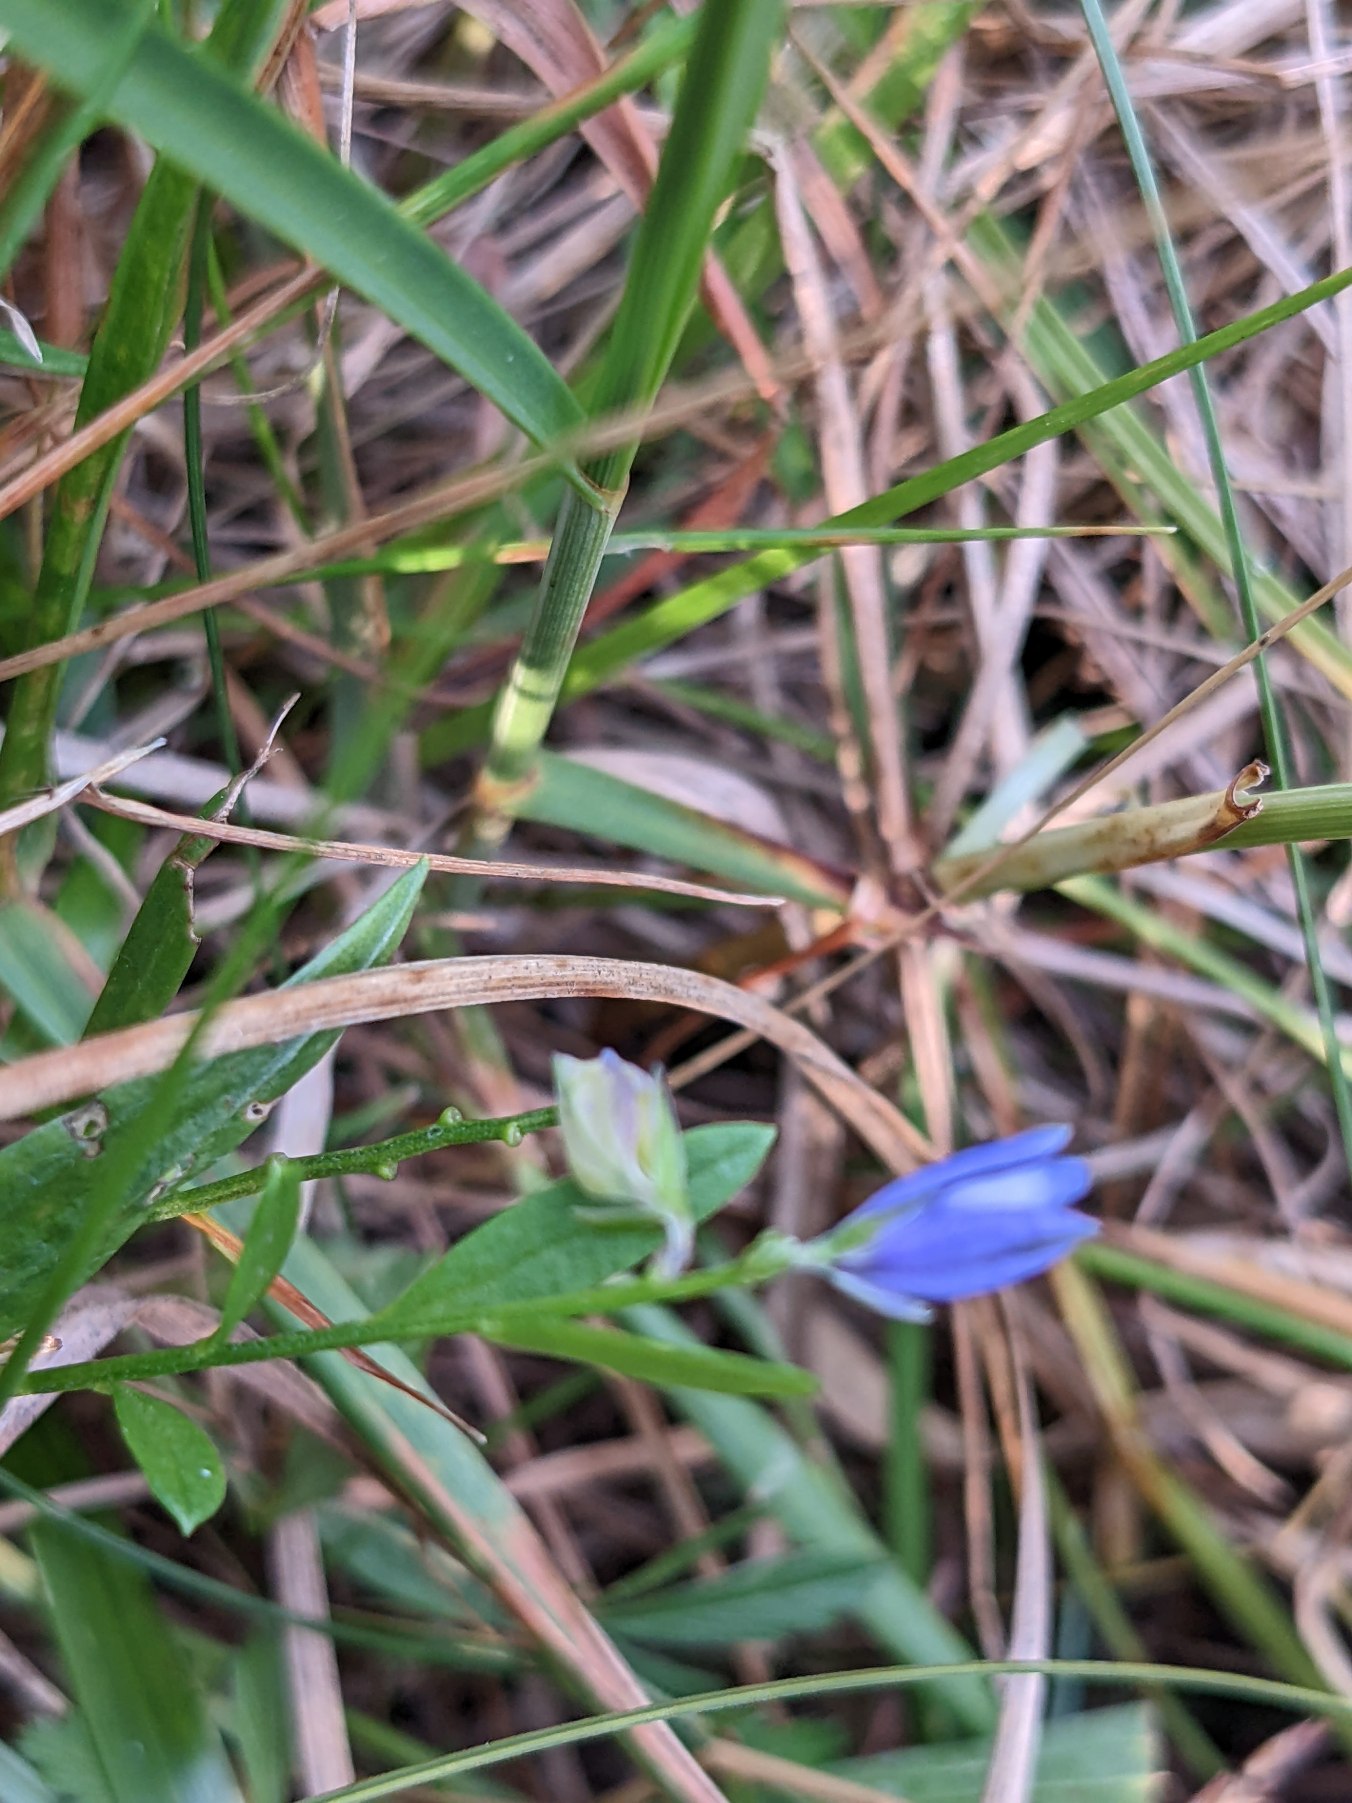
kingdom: Plantae
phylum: Tracheophyta
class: Magnoliopsida
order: Fabales
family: Polygalaceae
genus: Polygala
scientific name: Polygala vulgaris
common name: Almindelig mælkeurt
